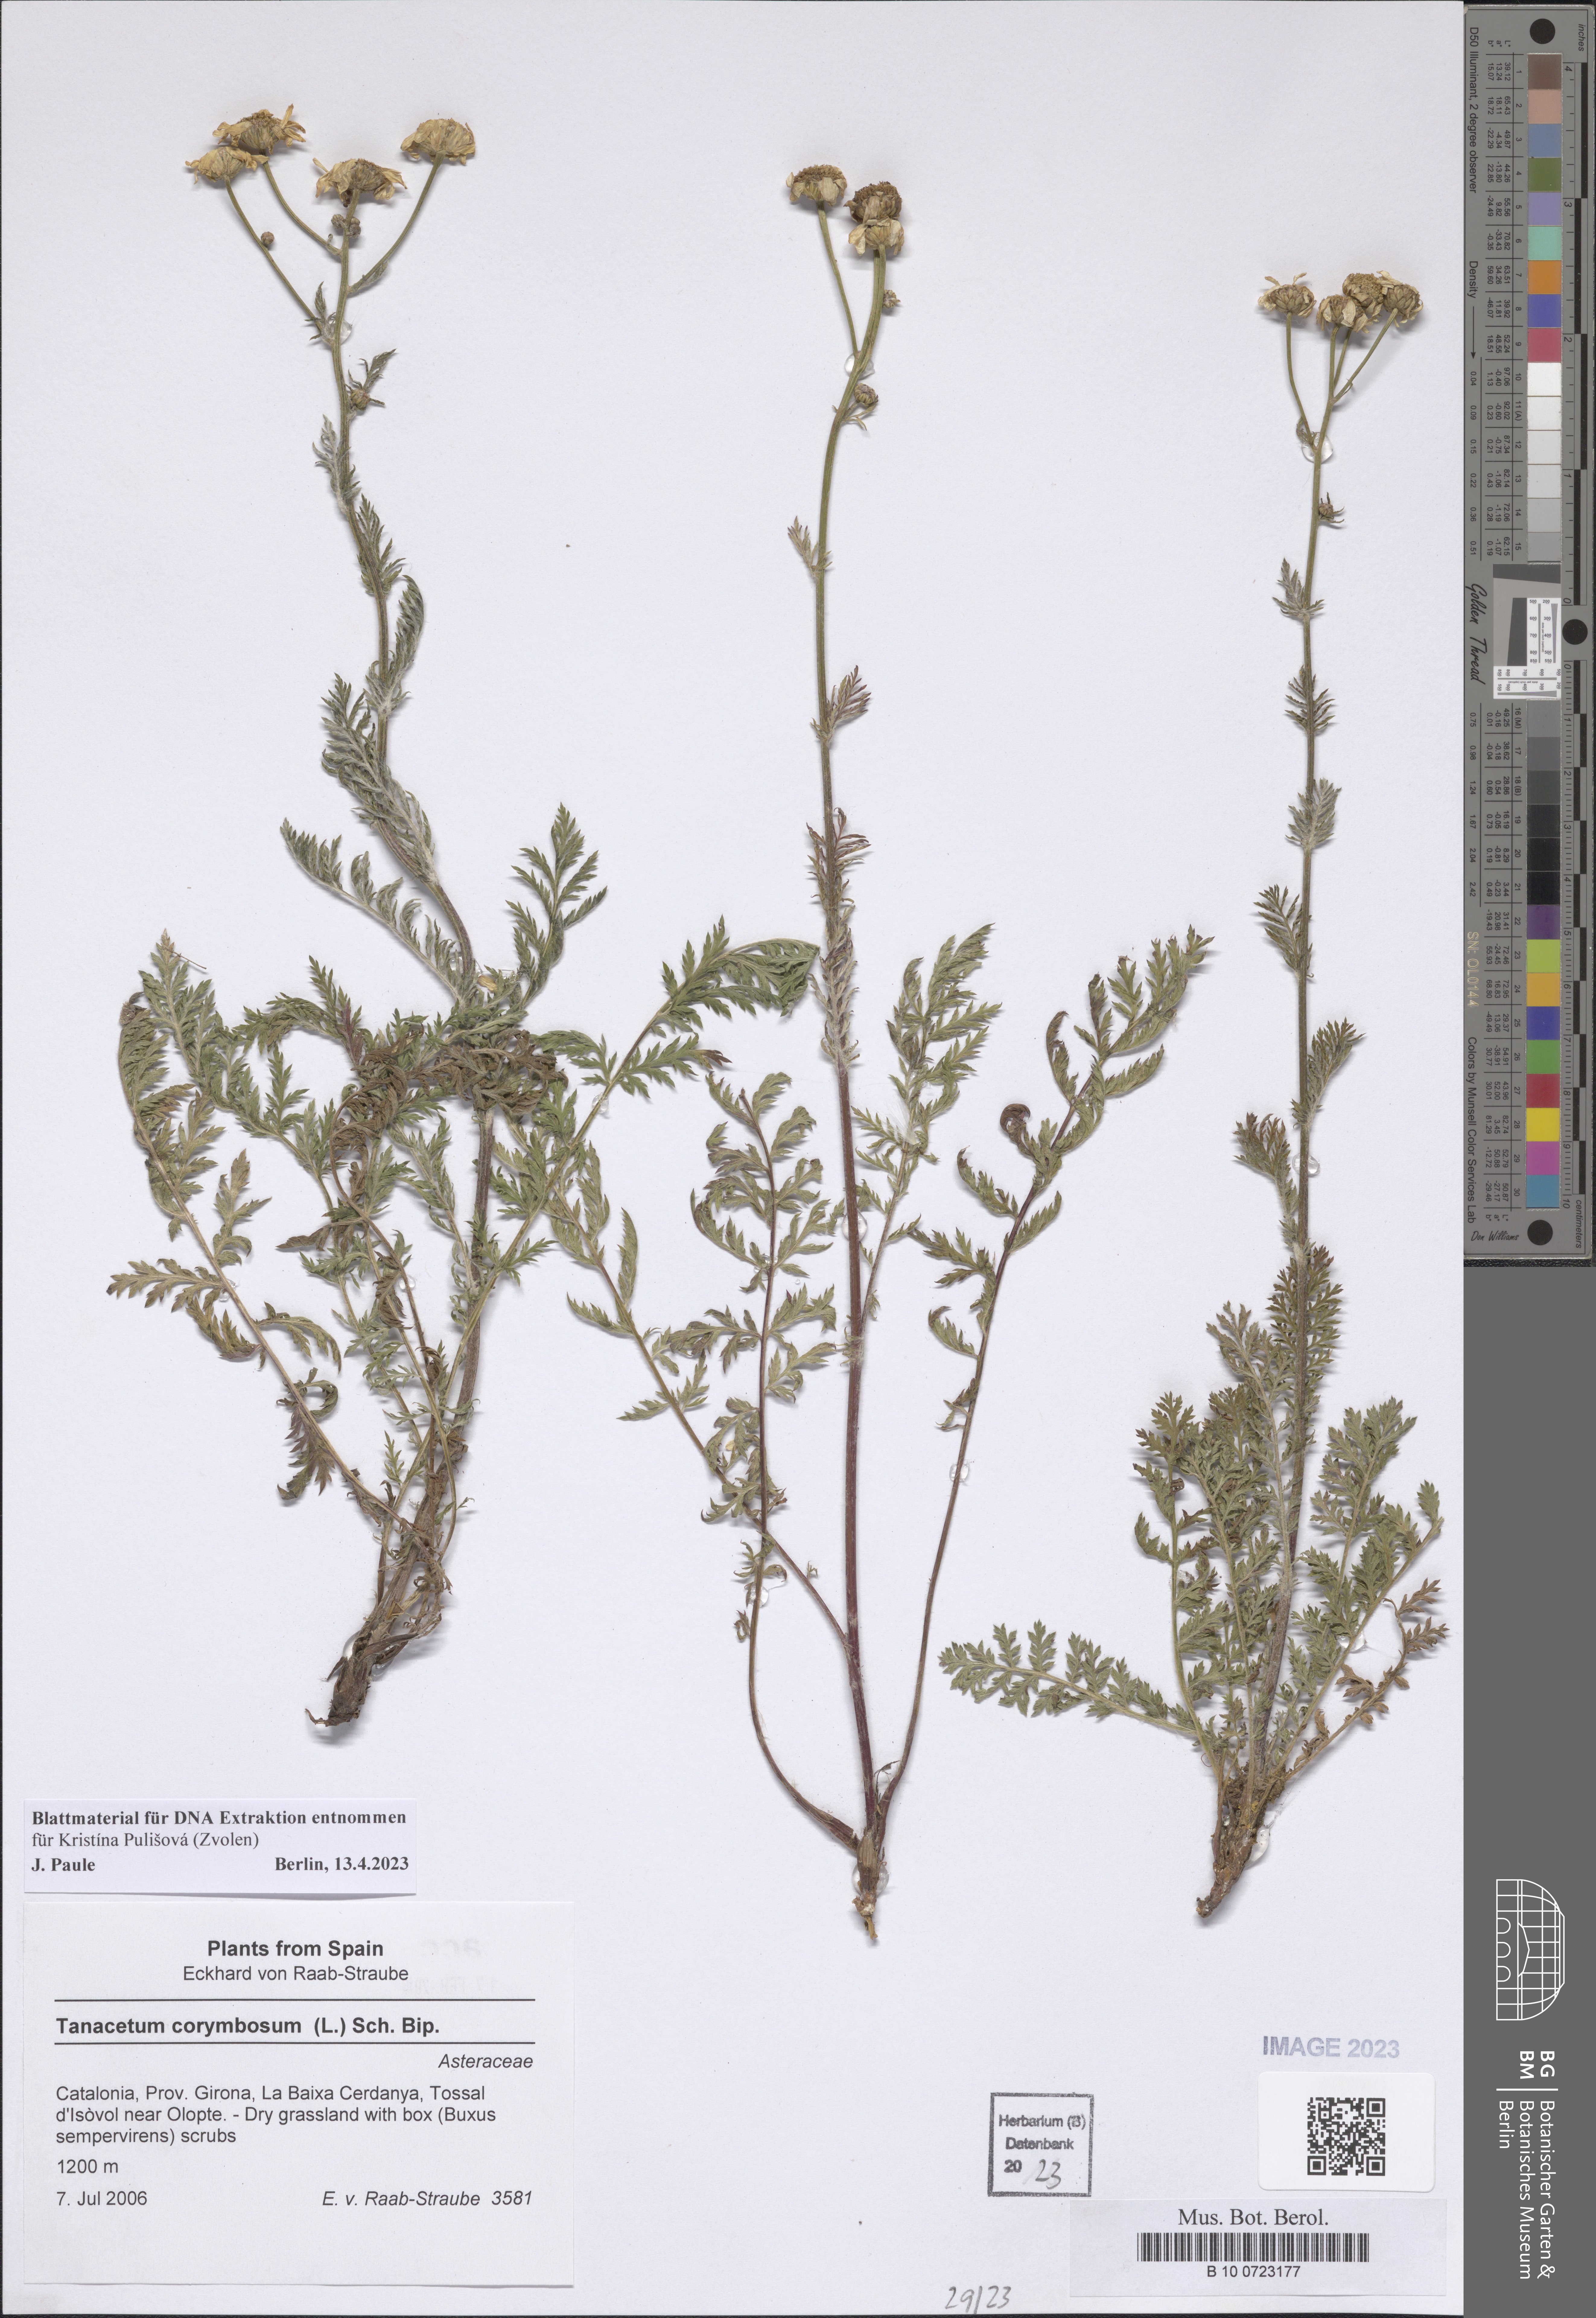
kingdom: Plantae
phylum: Tracheophyta
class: Magnoliopsida
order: Asterales
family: Asteraceae
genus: Tanacetum
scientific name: Tanacetum corymbosum
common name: Scentless feverfew
